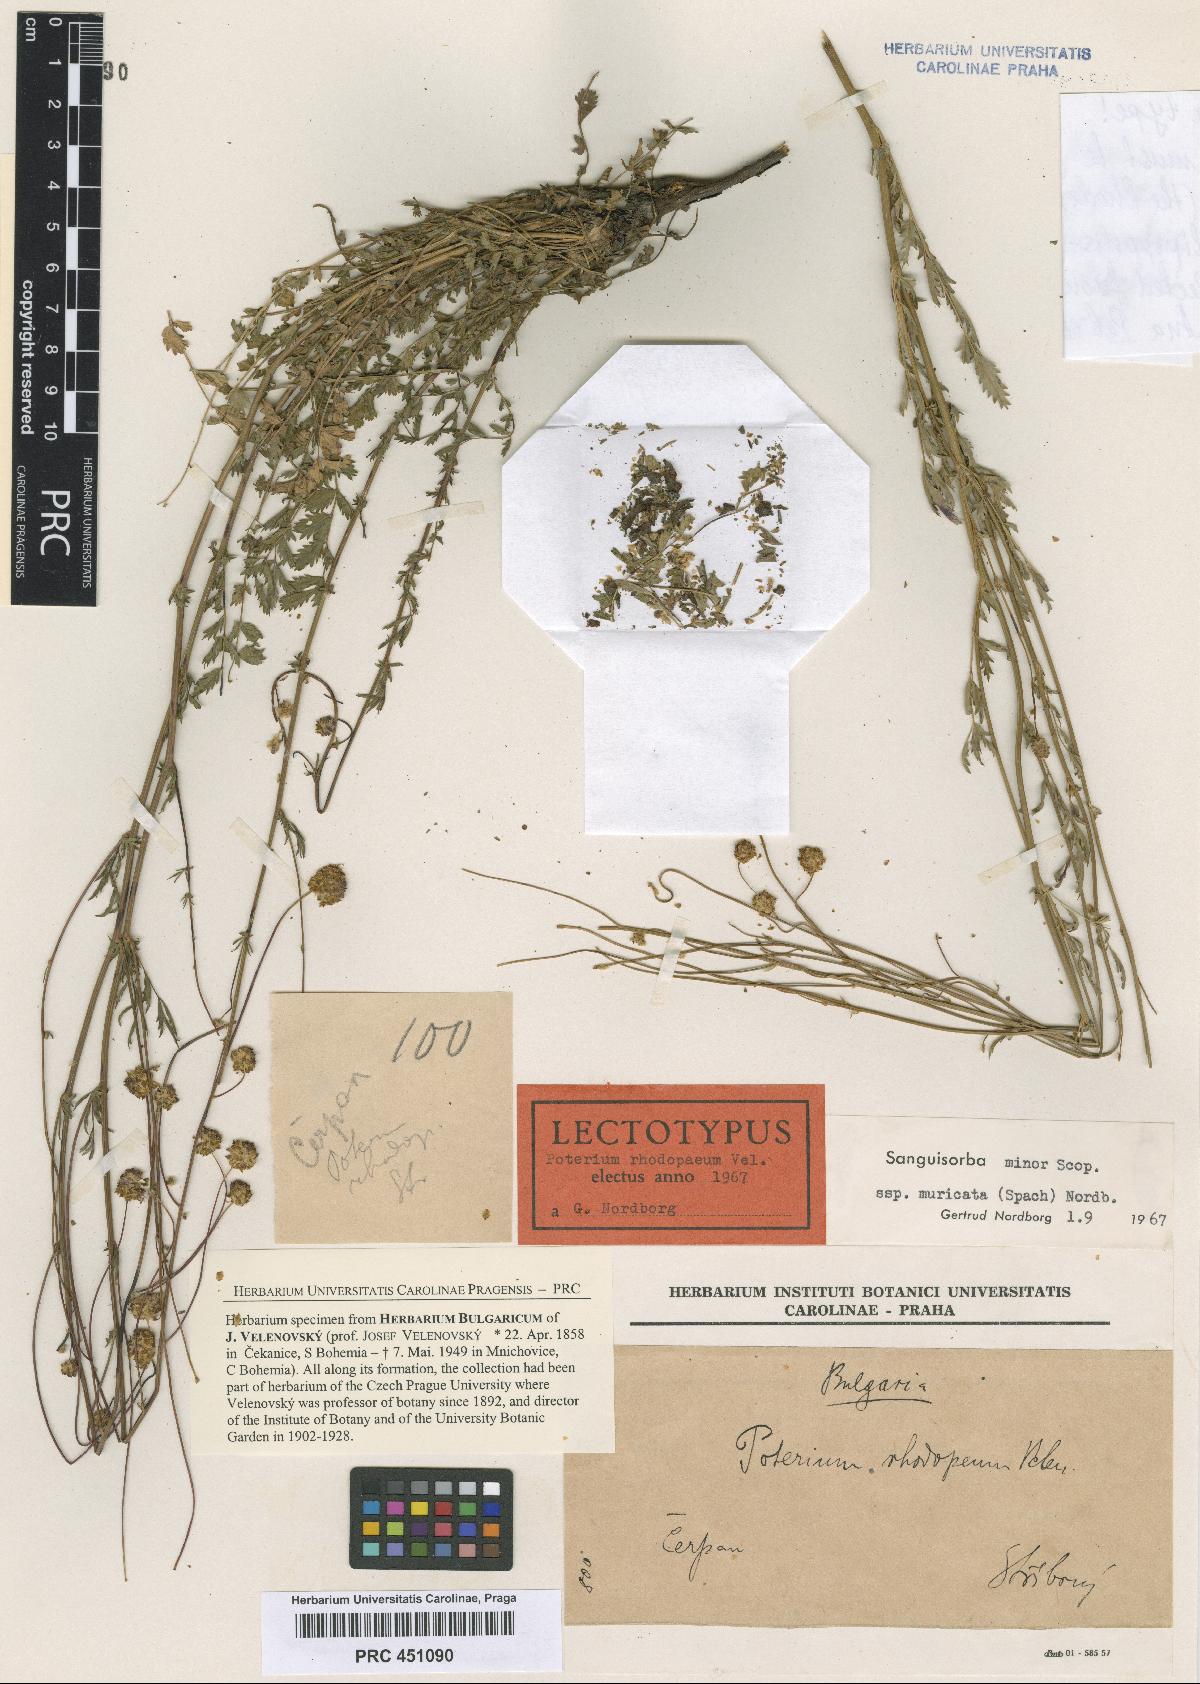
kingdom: Plantae
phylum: Tracheophyta
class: Magnoliopsida
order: Rosales
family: Rosaceae
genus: Poterium
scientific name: Poterium sanguisorba
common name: Salad burnet
